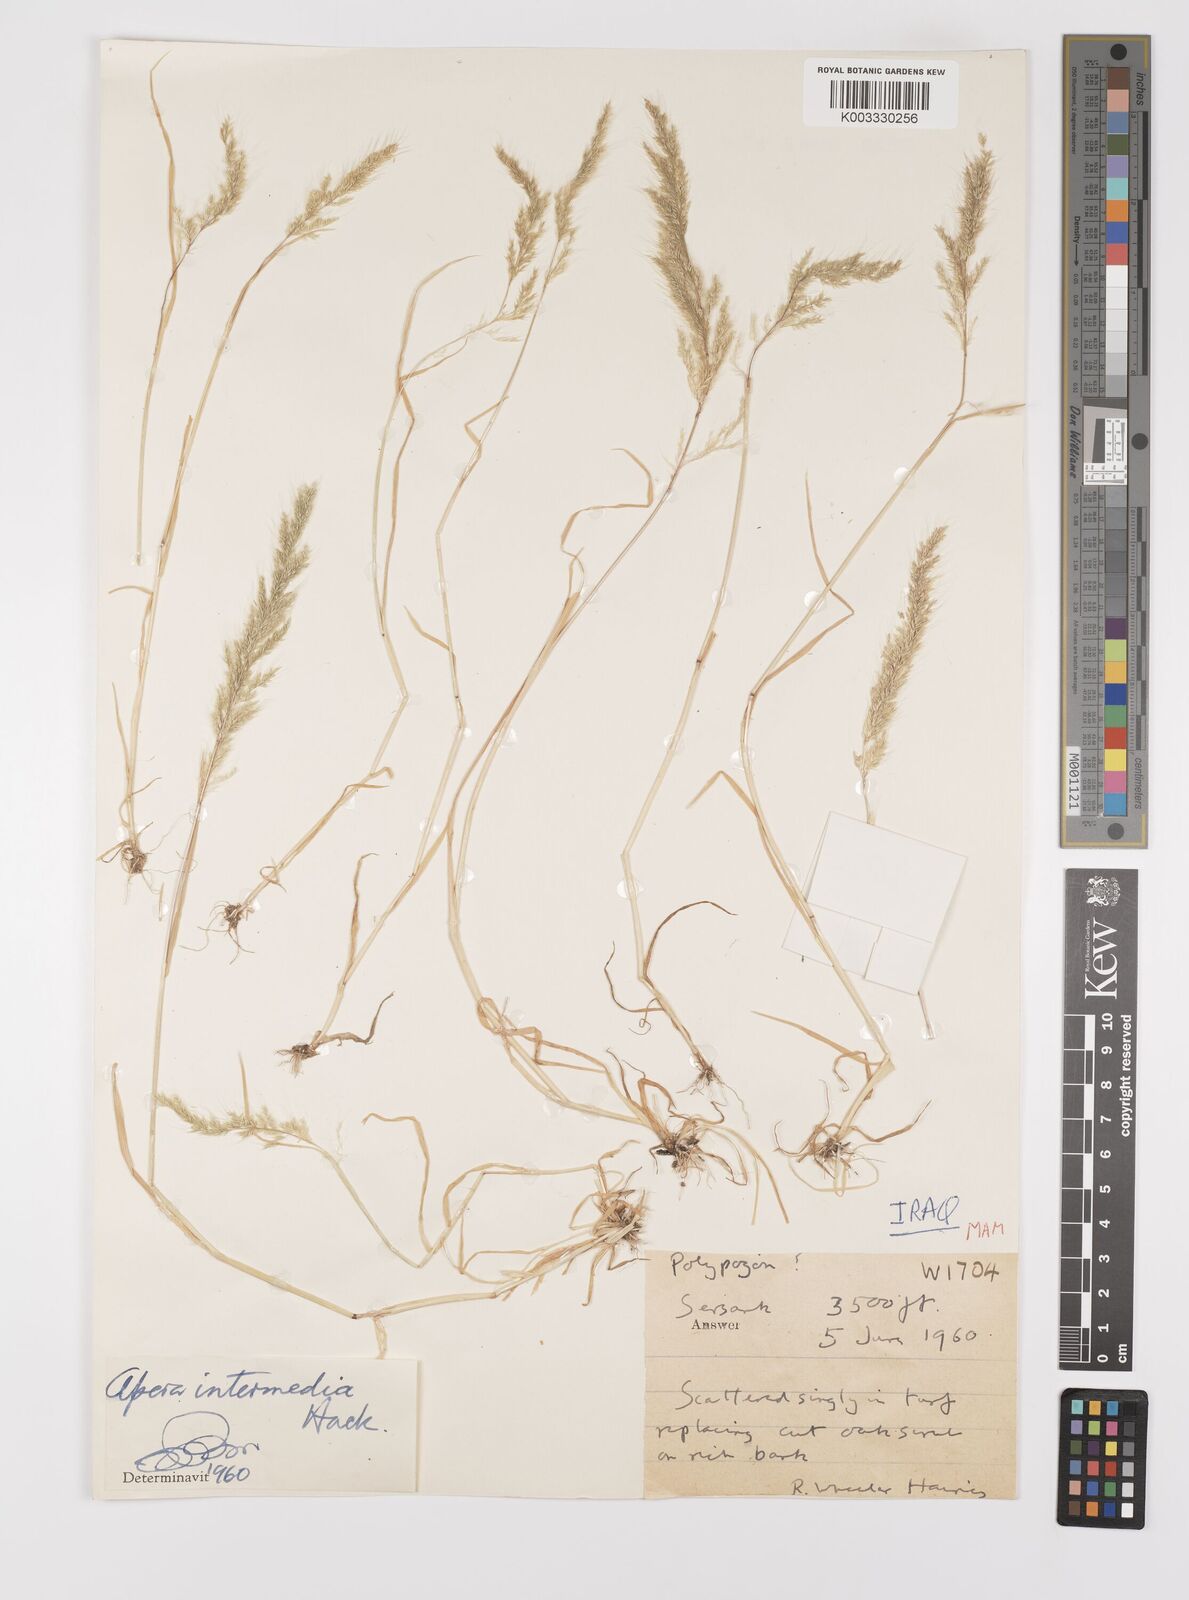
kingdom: Plantae
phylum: Tracheophyta
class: Liliopsida
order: Poales
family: Poaceae
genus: Apera
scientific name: Apera intermedia
